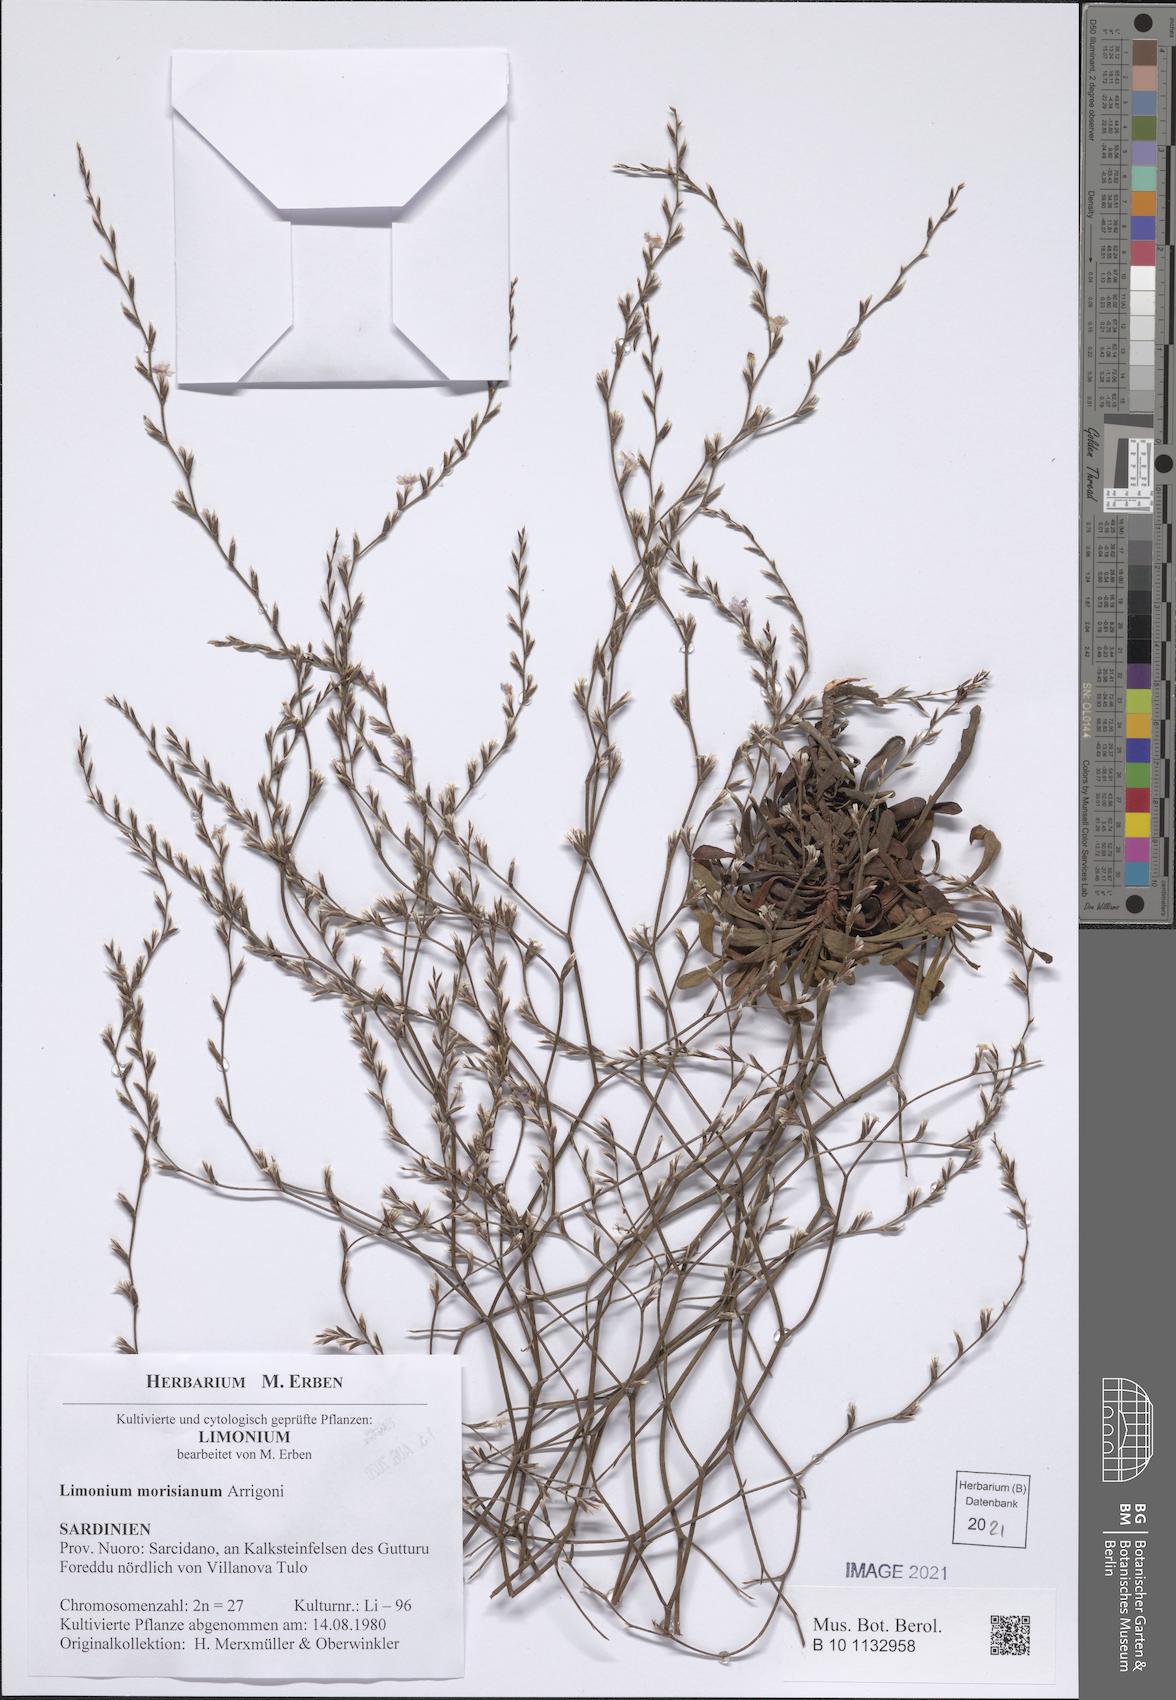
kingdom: Plantae
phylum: Tracheophyta
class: Magnoliopsida
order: Caryophyllales
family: Plumbaginaceae
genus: Limonium
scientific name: Limonium morisianum
